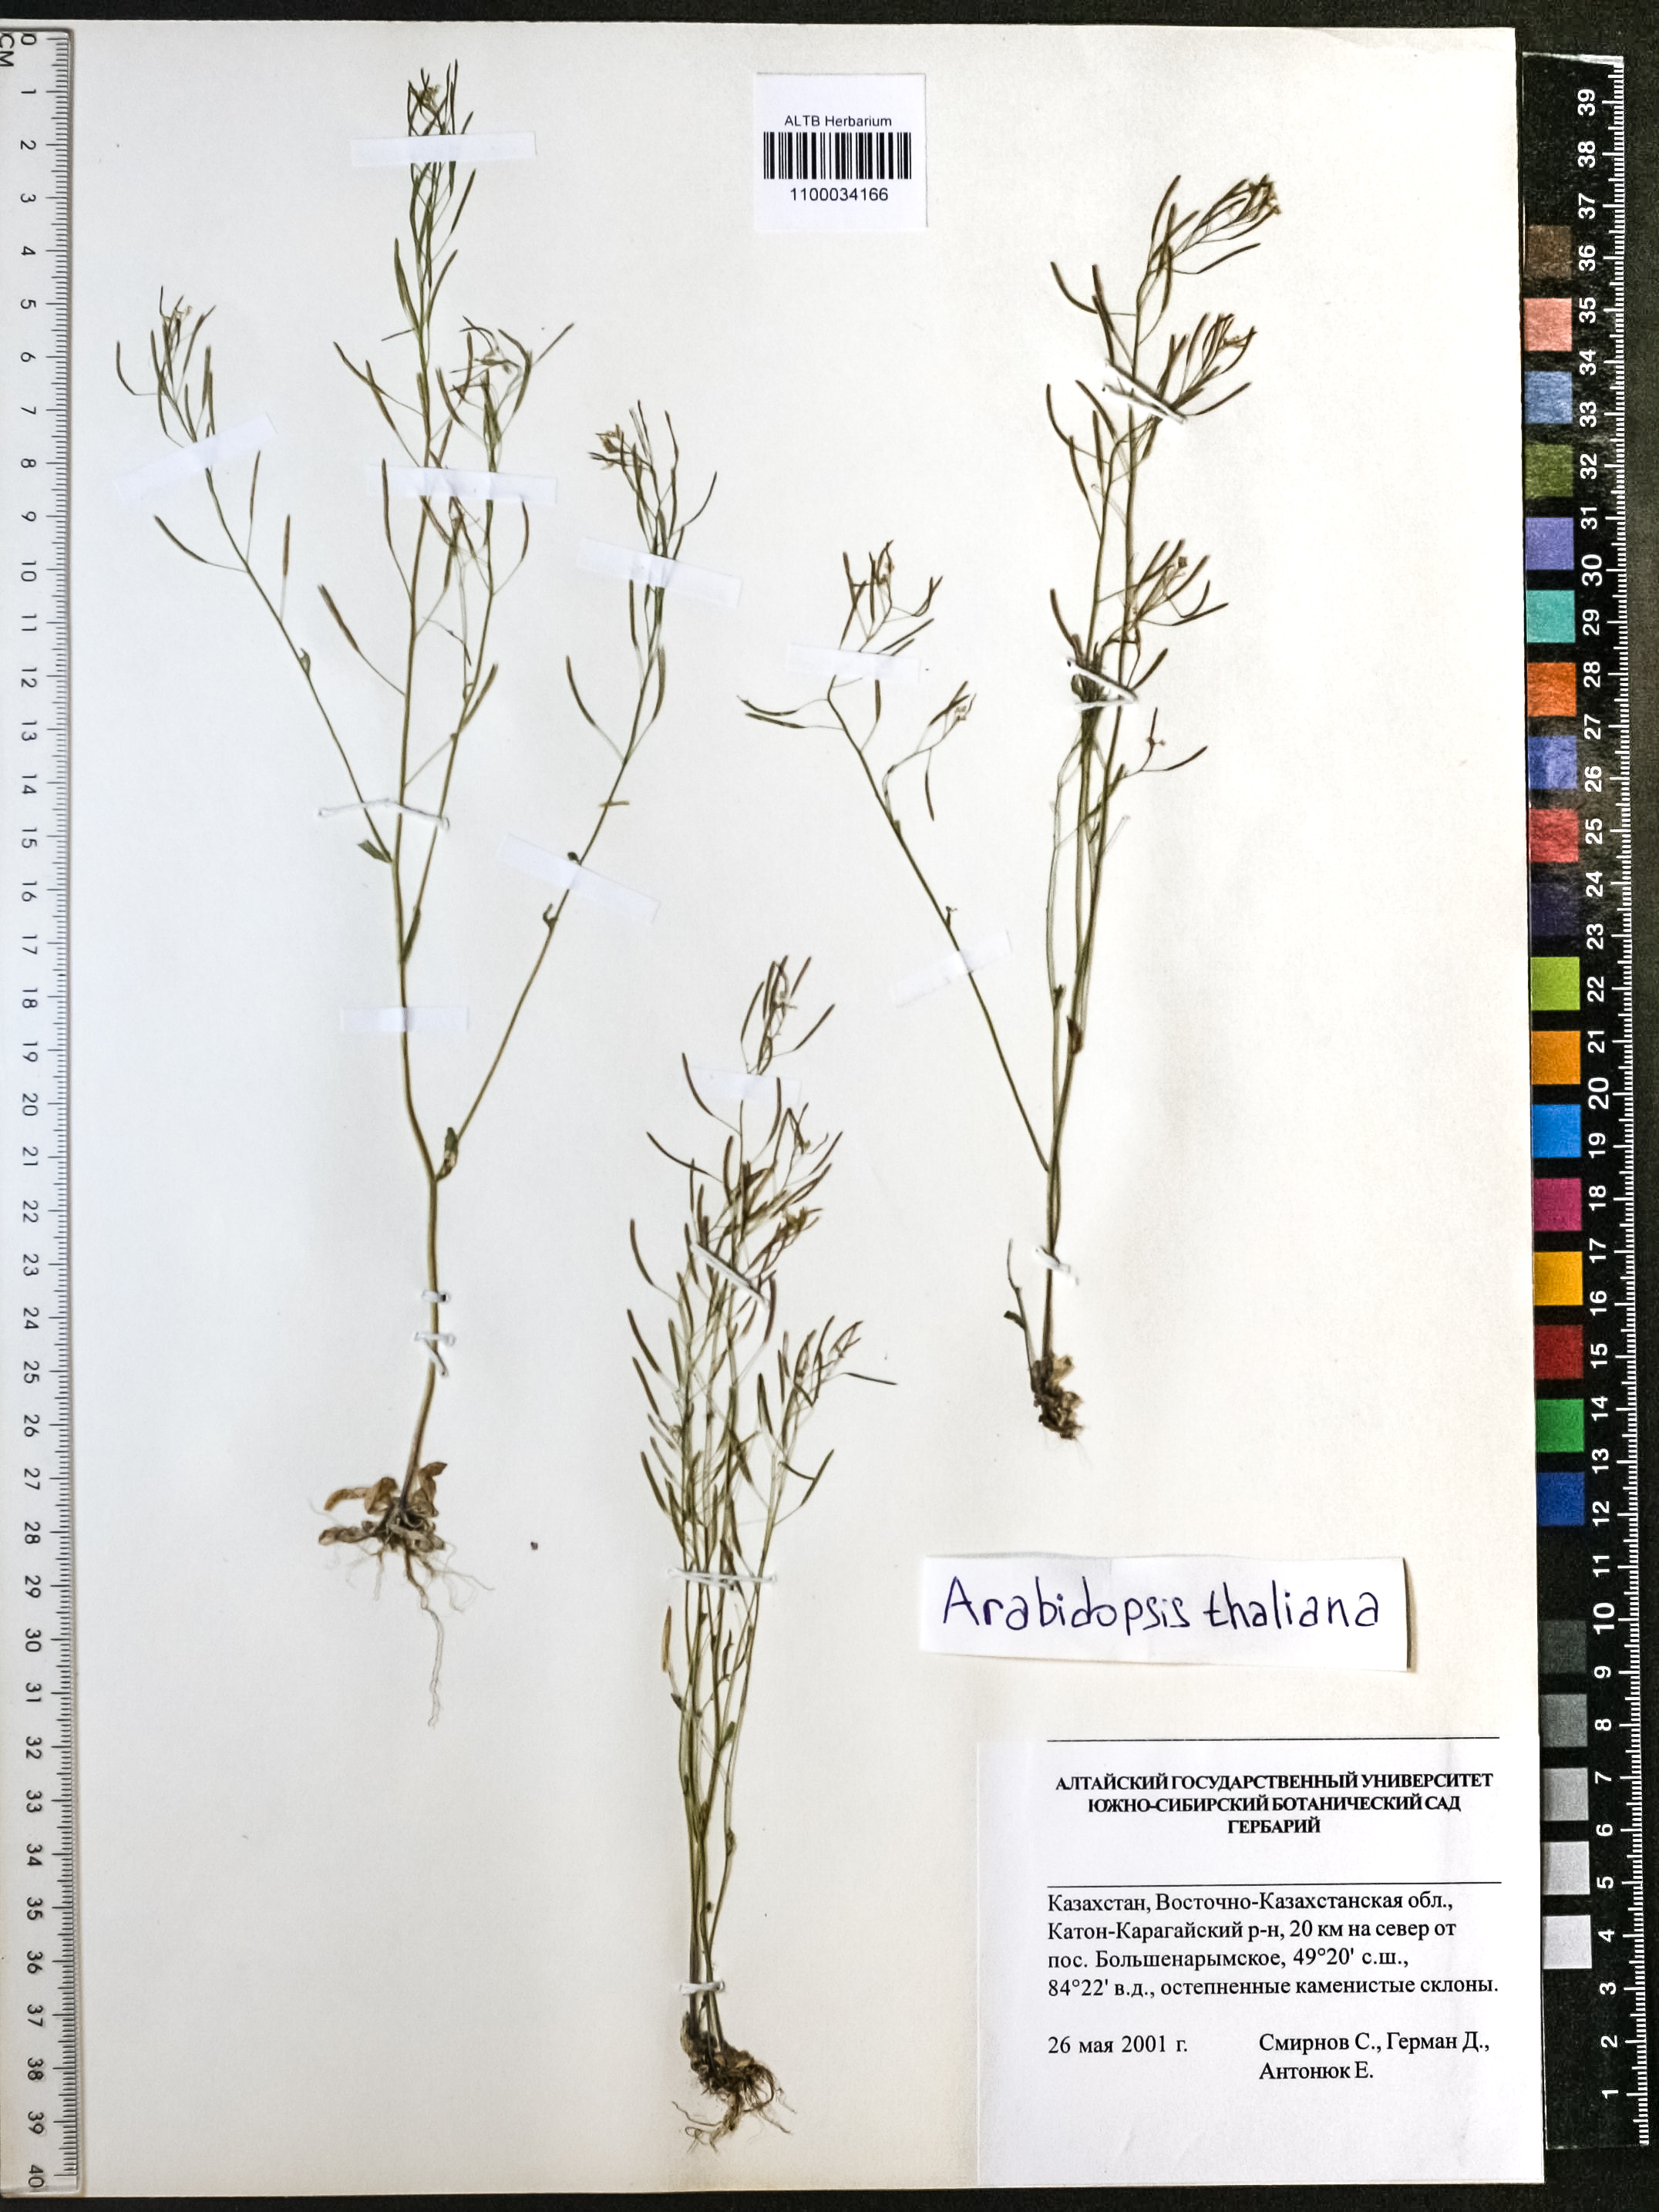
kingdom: Plantae
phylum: Tracheophyta
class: Magnoliopsida
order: Brassicales
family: Brassicaceae
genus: Arabidopsis
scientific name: Arabidopsis thaliana
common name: Thale cress
